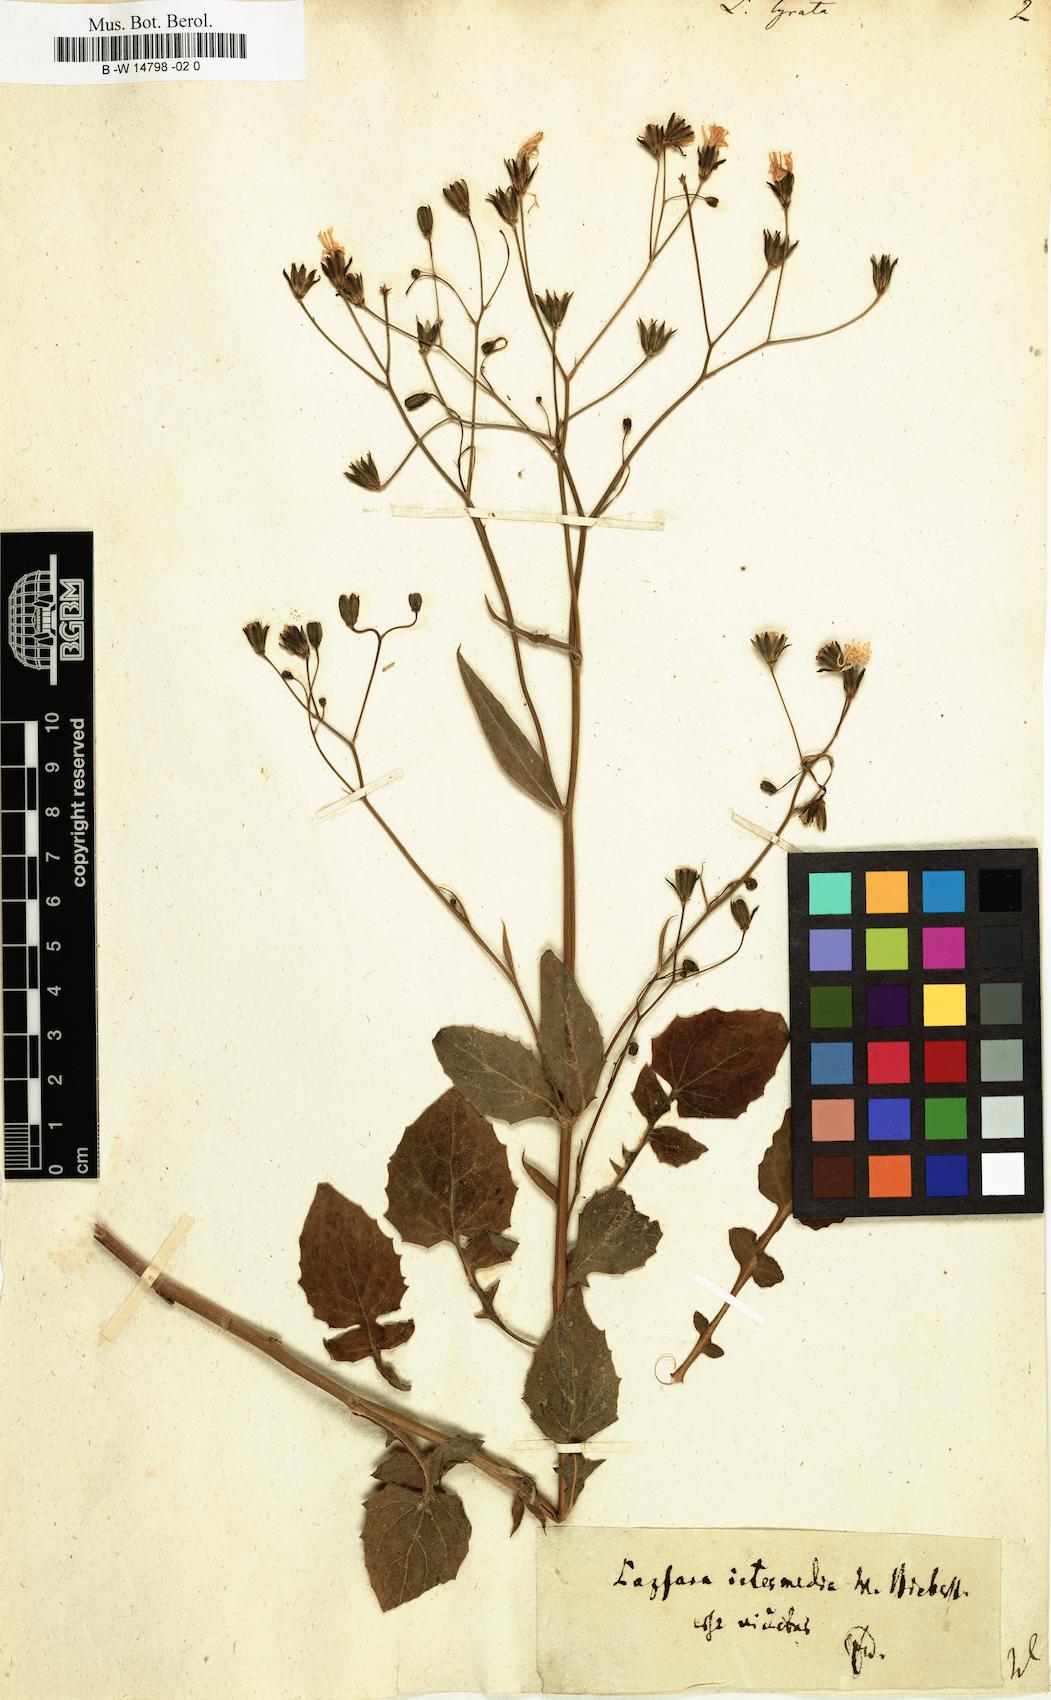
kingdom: Plantae
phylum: Tracheophyta
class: Magnoliopsida
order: Asterales
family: Asteraceae
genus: Lapsana
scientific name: Lapsana communis
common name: Nipplewort
